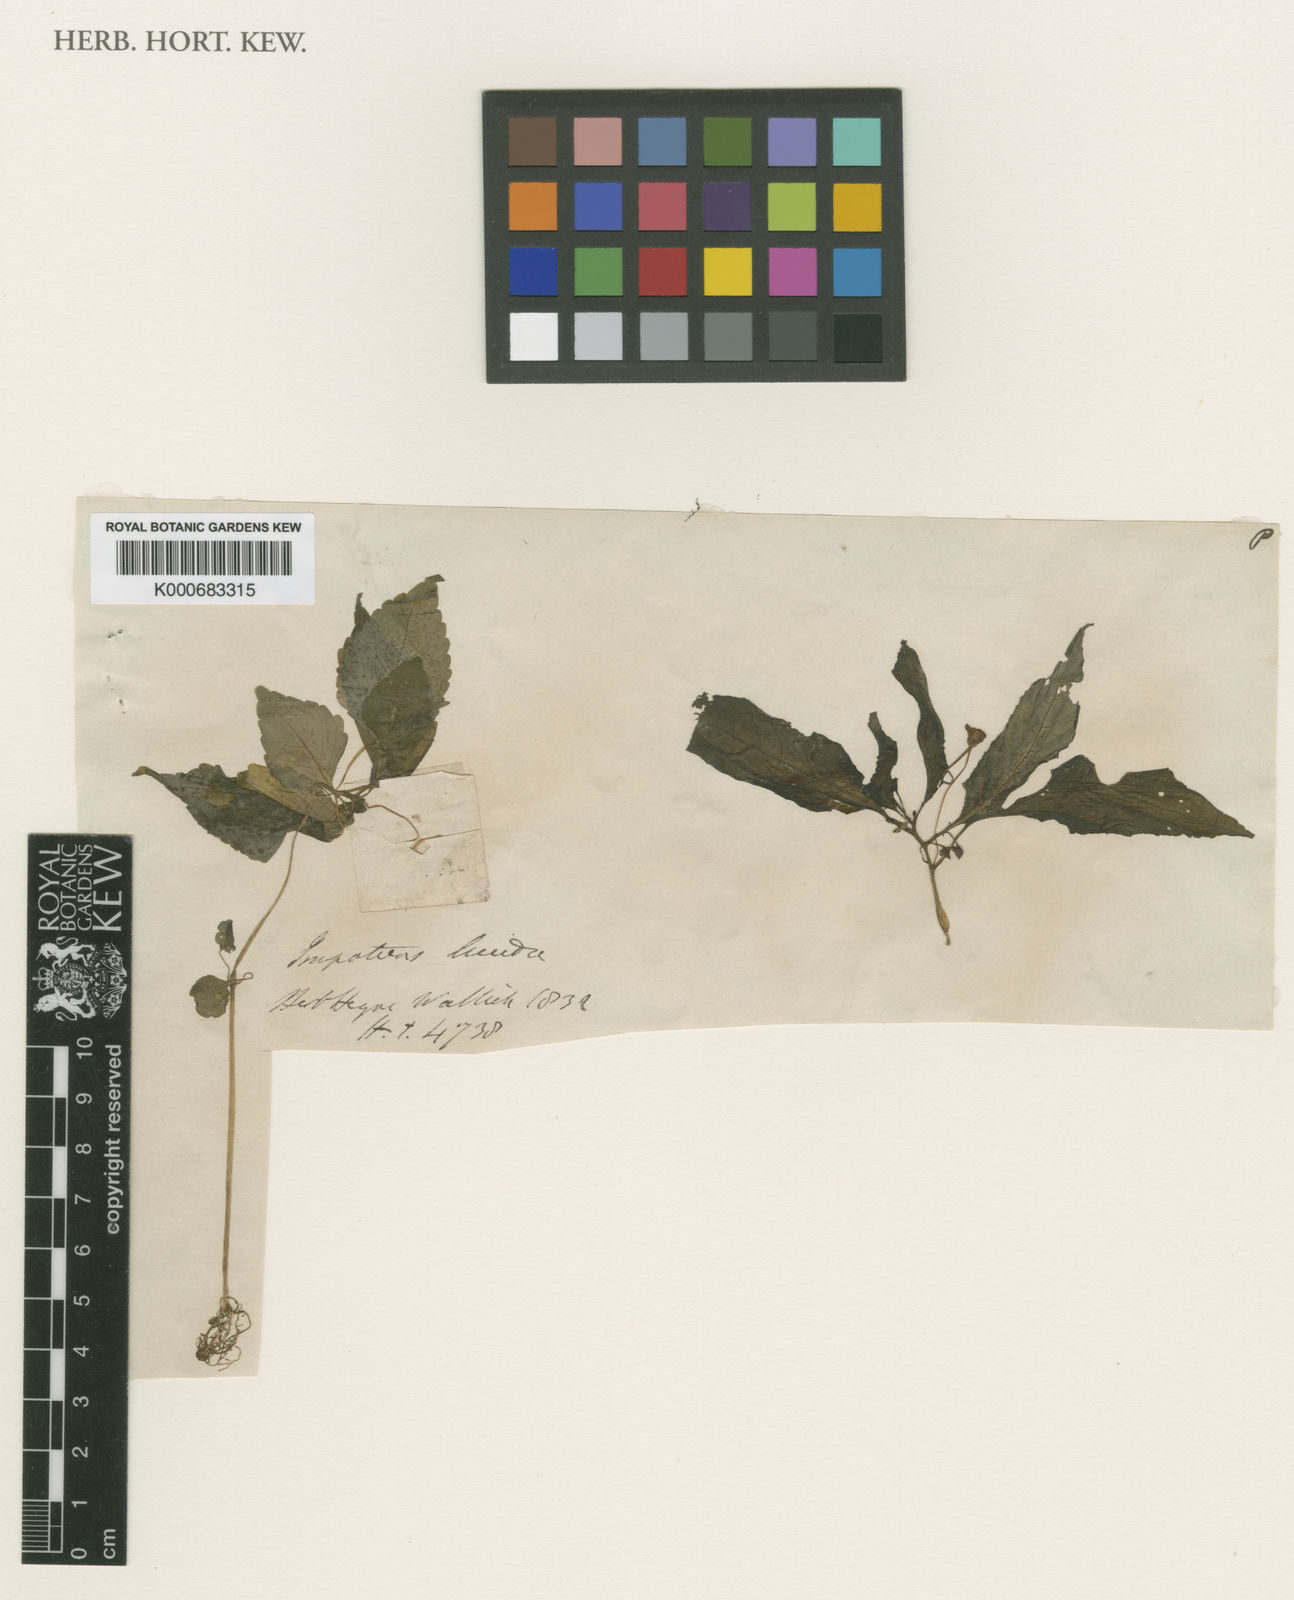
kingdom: Plantae
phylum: Tracheophyta
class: Magnoliopsida
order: Ericales
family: Balsaminaceae
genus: Impatiens
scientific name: Impatiens
